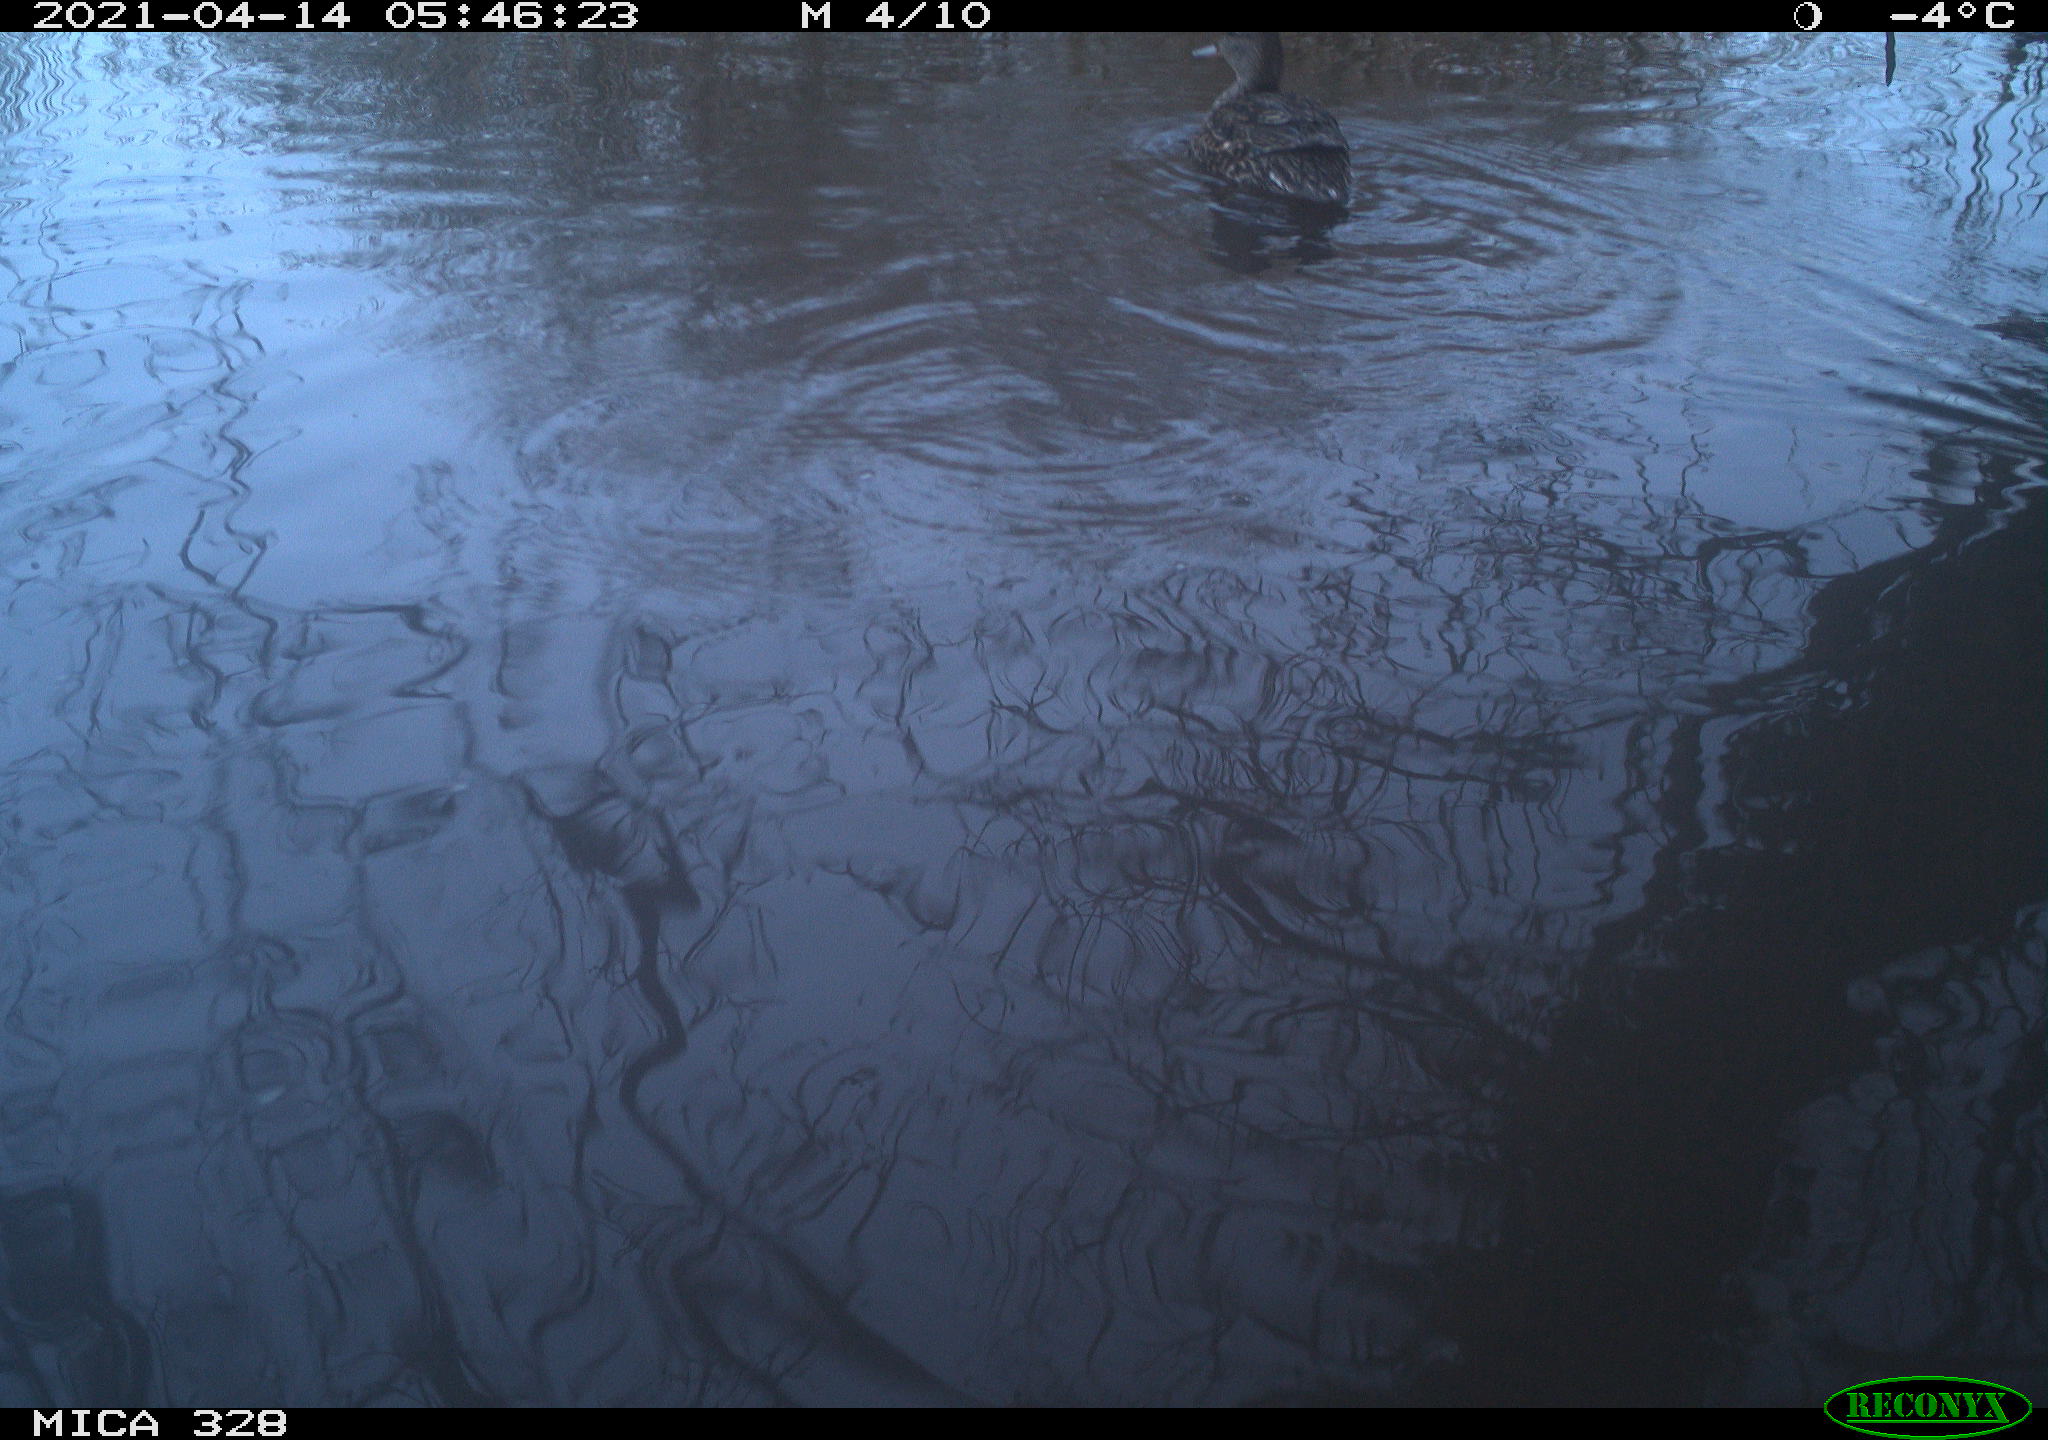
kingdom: Animalia
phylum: Chordata
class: Aves
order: Anseriformes
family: Anatidae
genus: Anas
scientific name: Anas platyrhynchos
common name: Mallard
